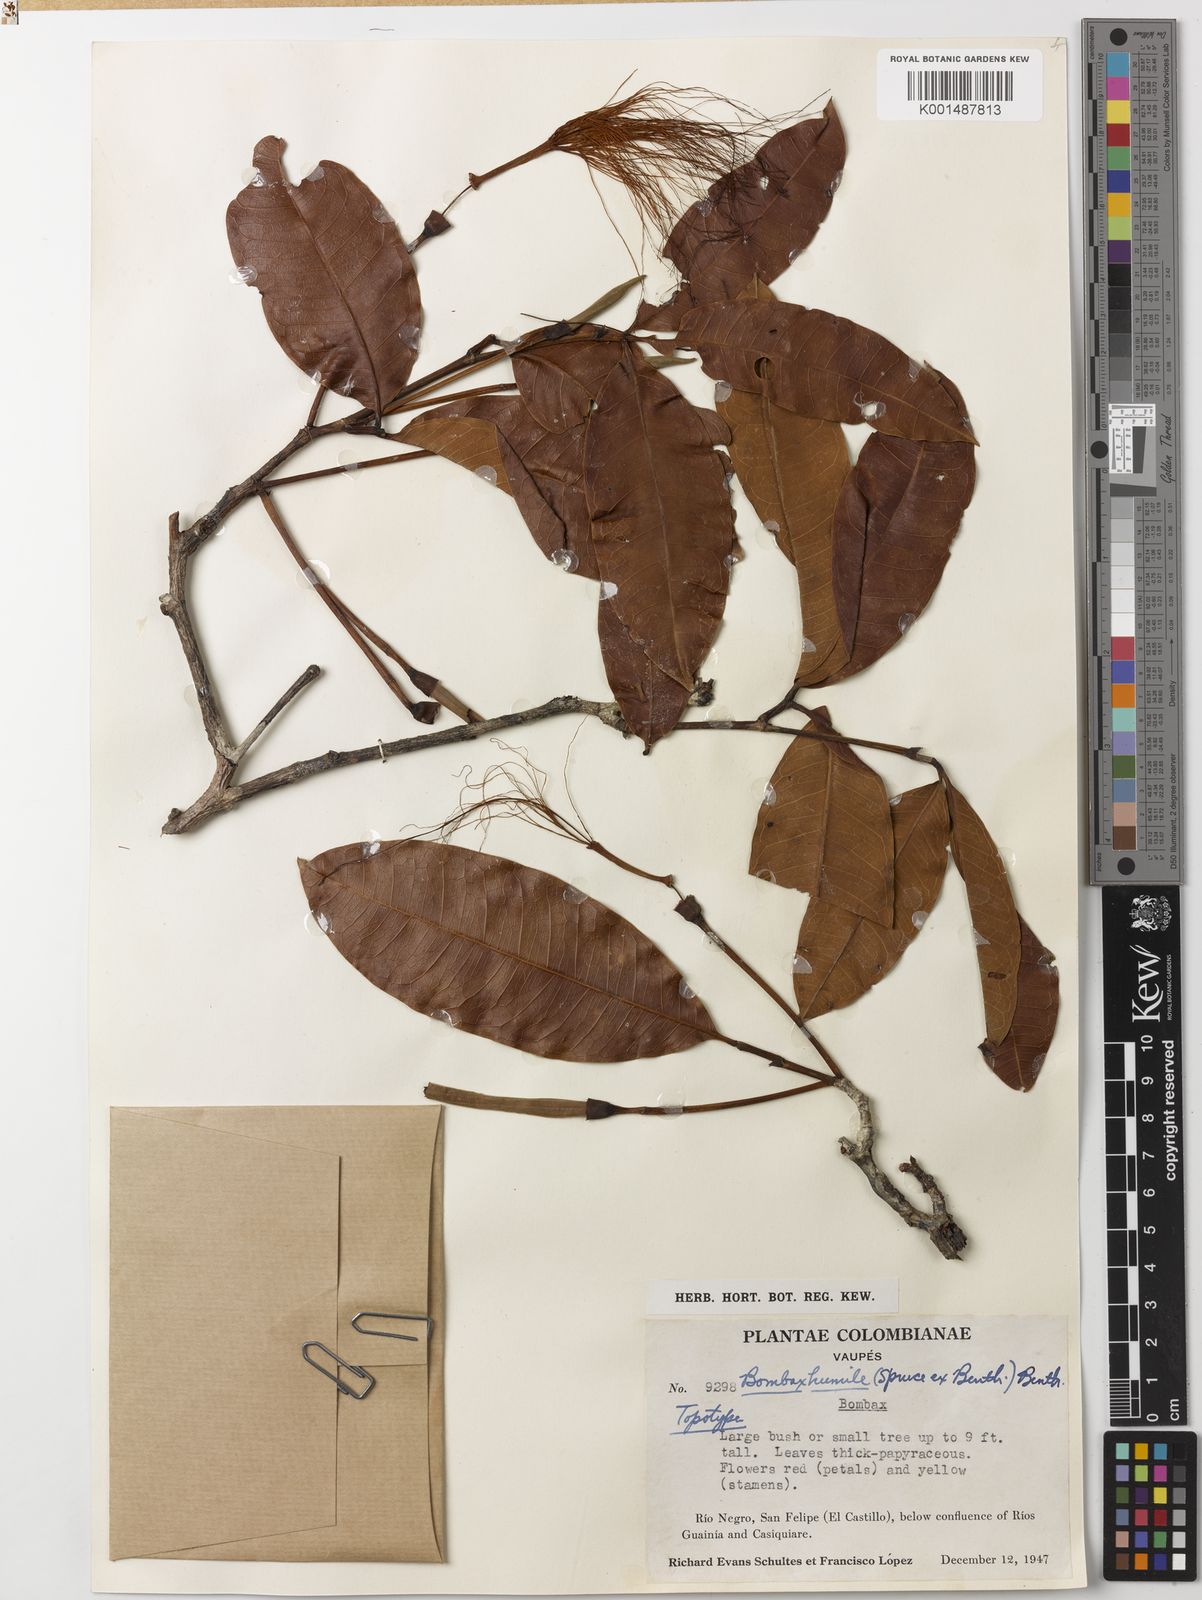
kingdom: Plantae
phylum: Tracheophyta
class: Magnoliopsida
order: Malvales
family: Malvaceae
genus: Pachira
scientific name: Pachira humilis
